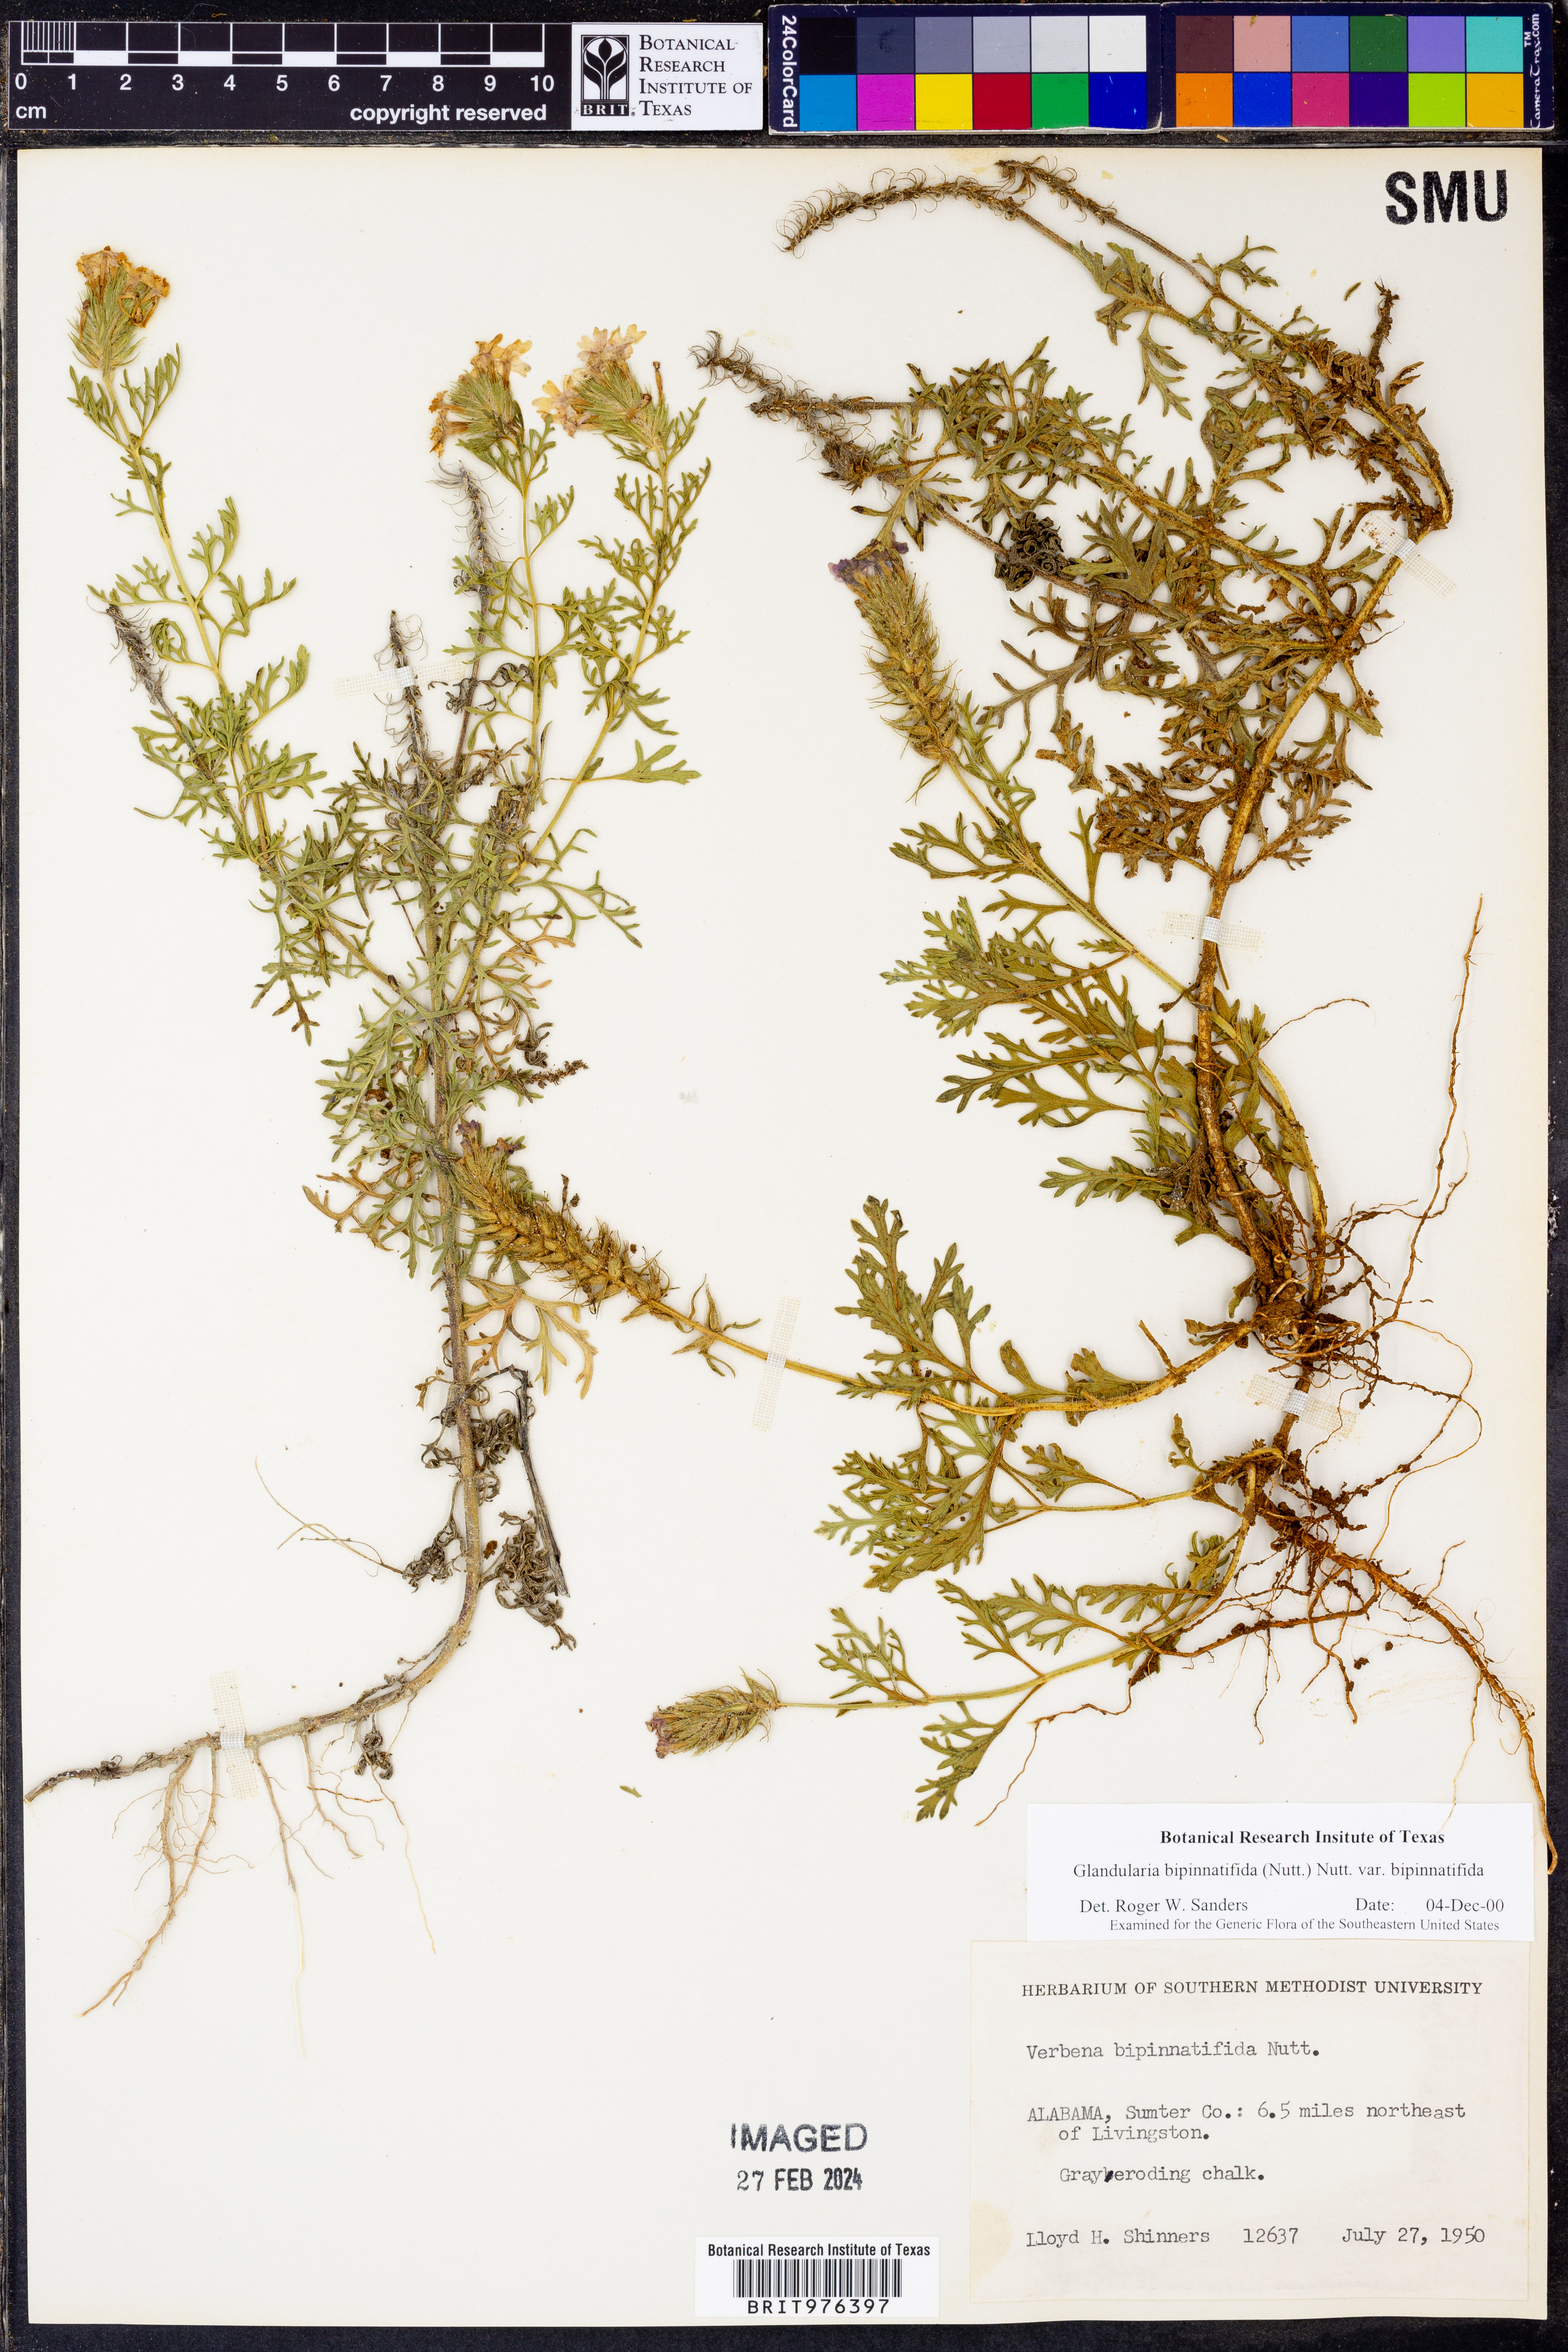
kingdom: Plantae
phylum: Tracheophyta
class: Magnoliopsida
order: Lamiales
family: Verbenaceae
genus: Verbena
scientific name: Verbena bipinnatifida
